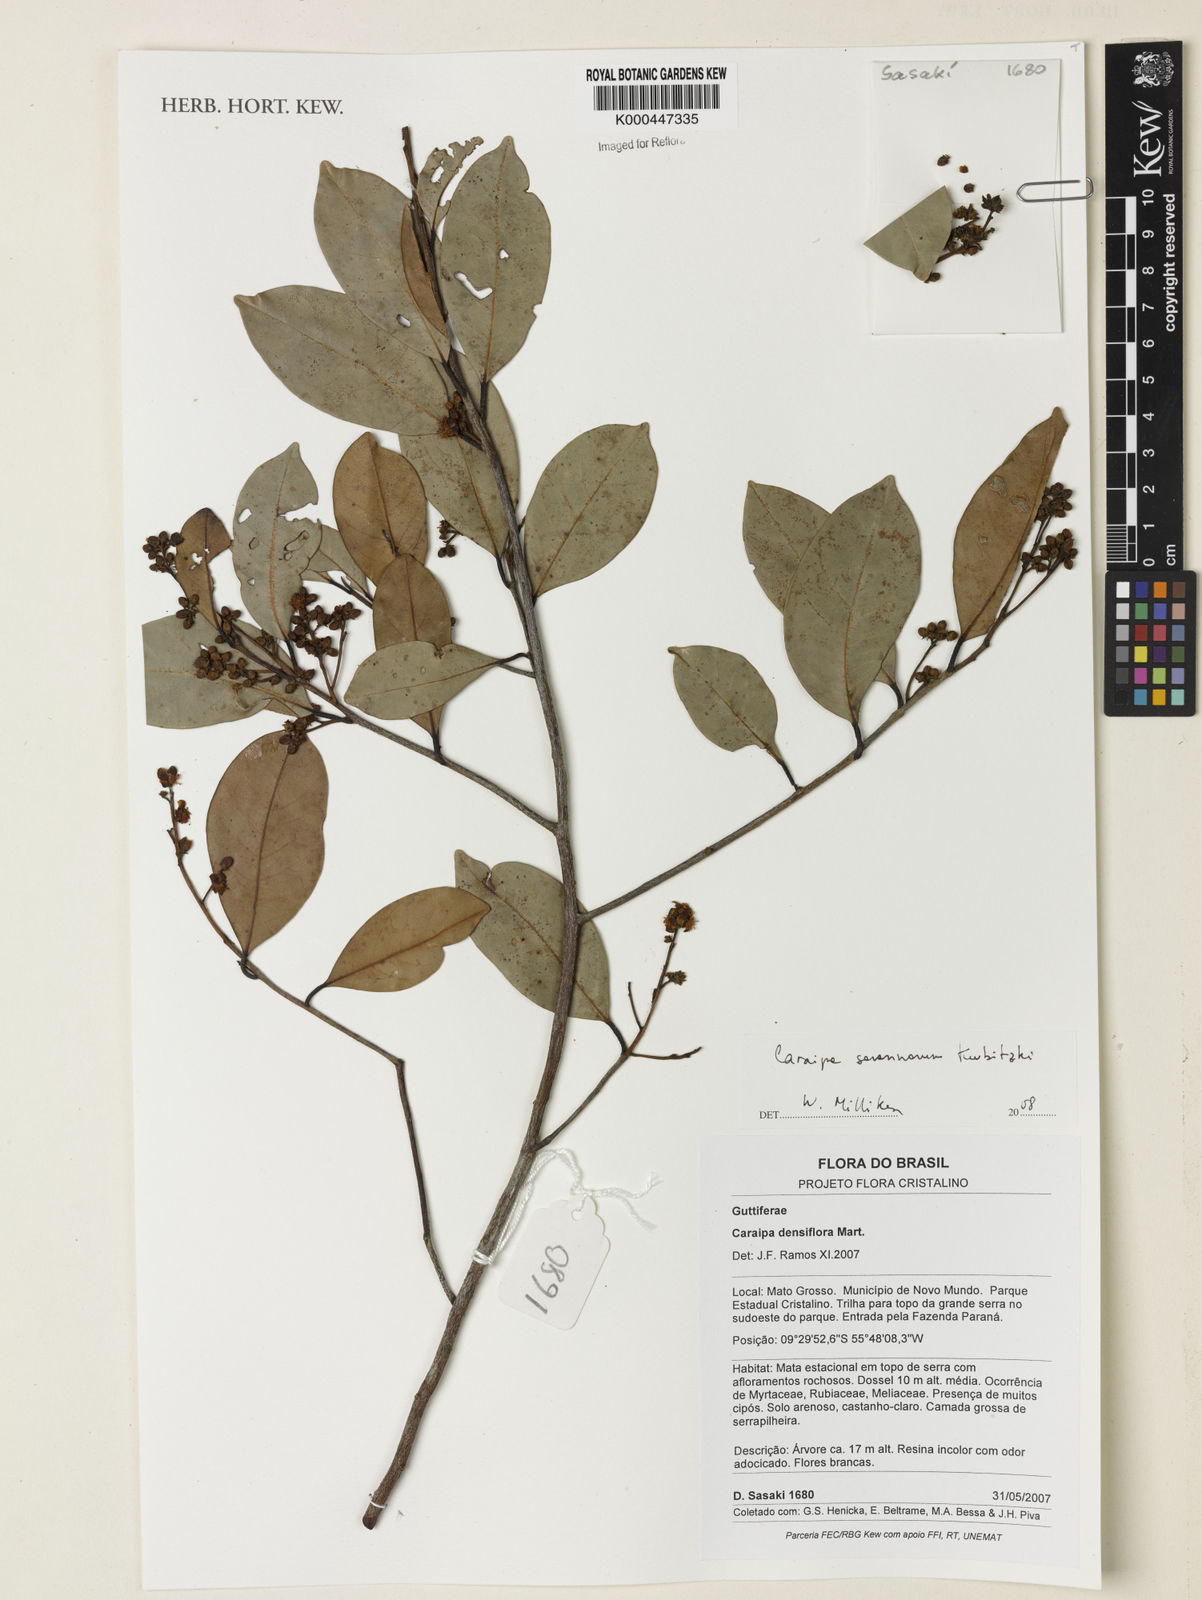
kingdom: Plantae
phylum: Tracheophyta
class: Magnoliopsida
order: Malpighiales
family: Calophyllaceae
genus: Caraipa
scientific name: Caraipa savannarum
